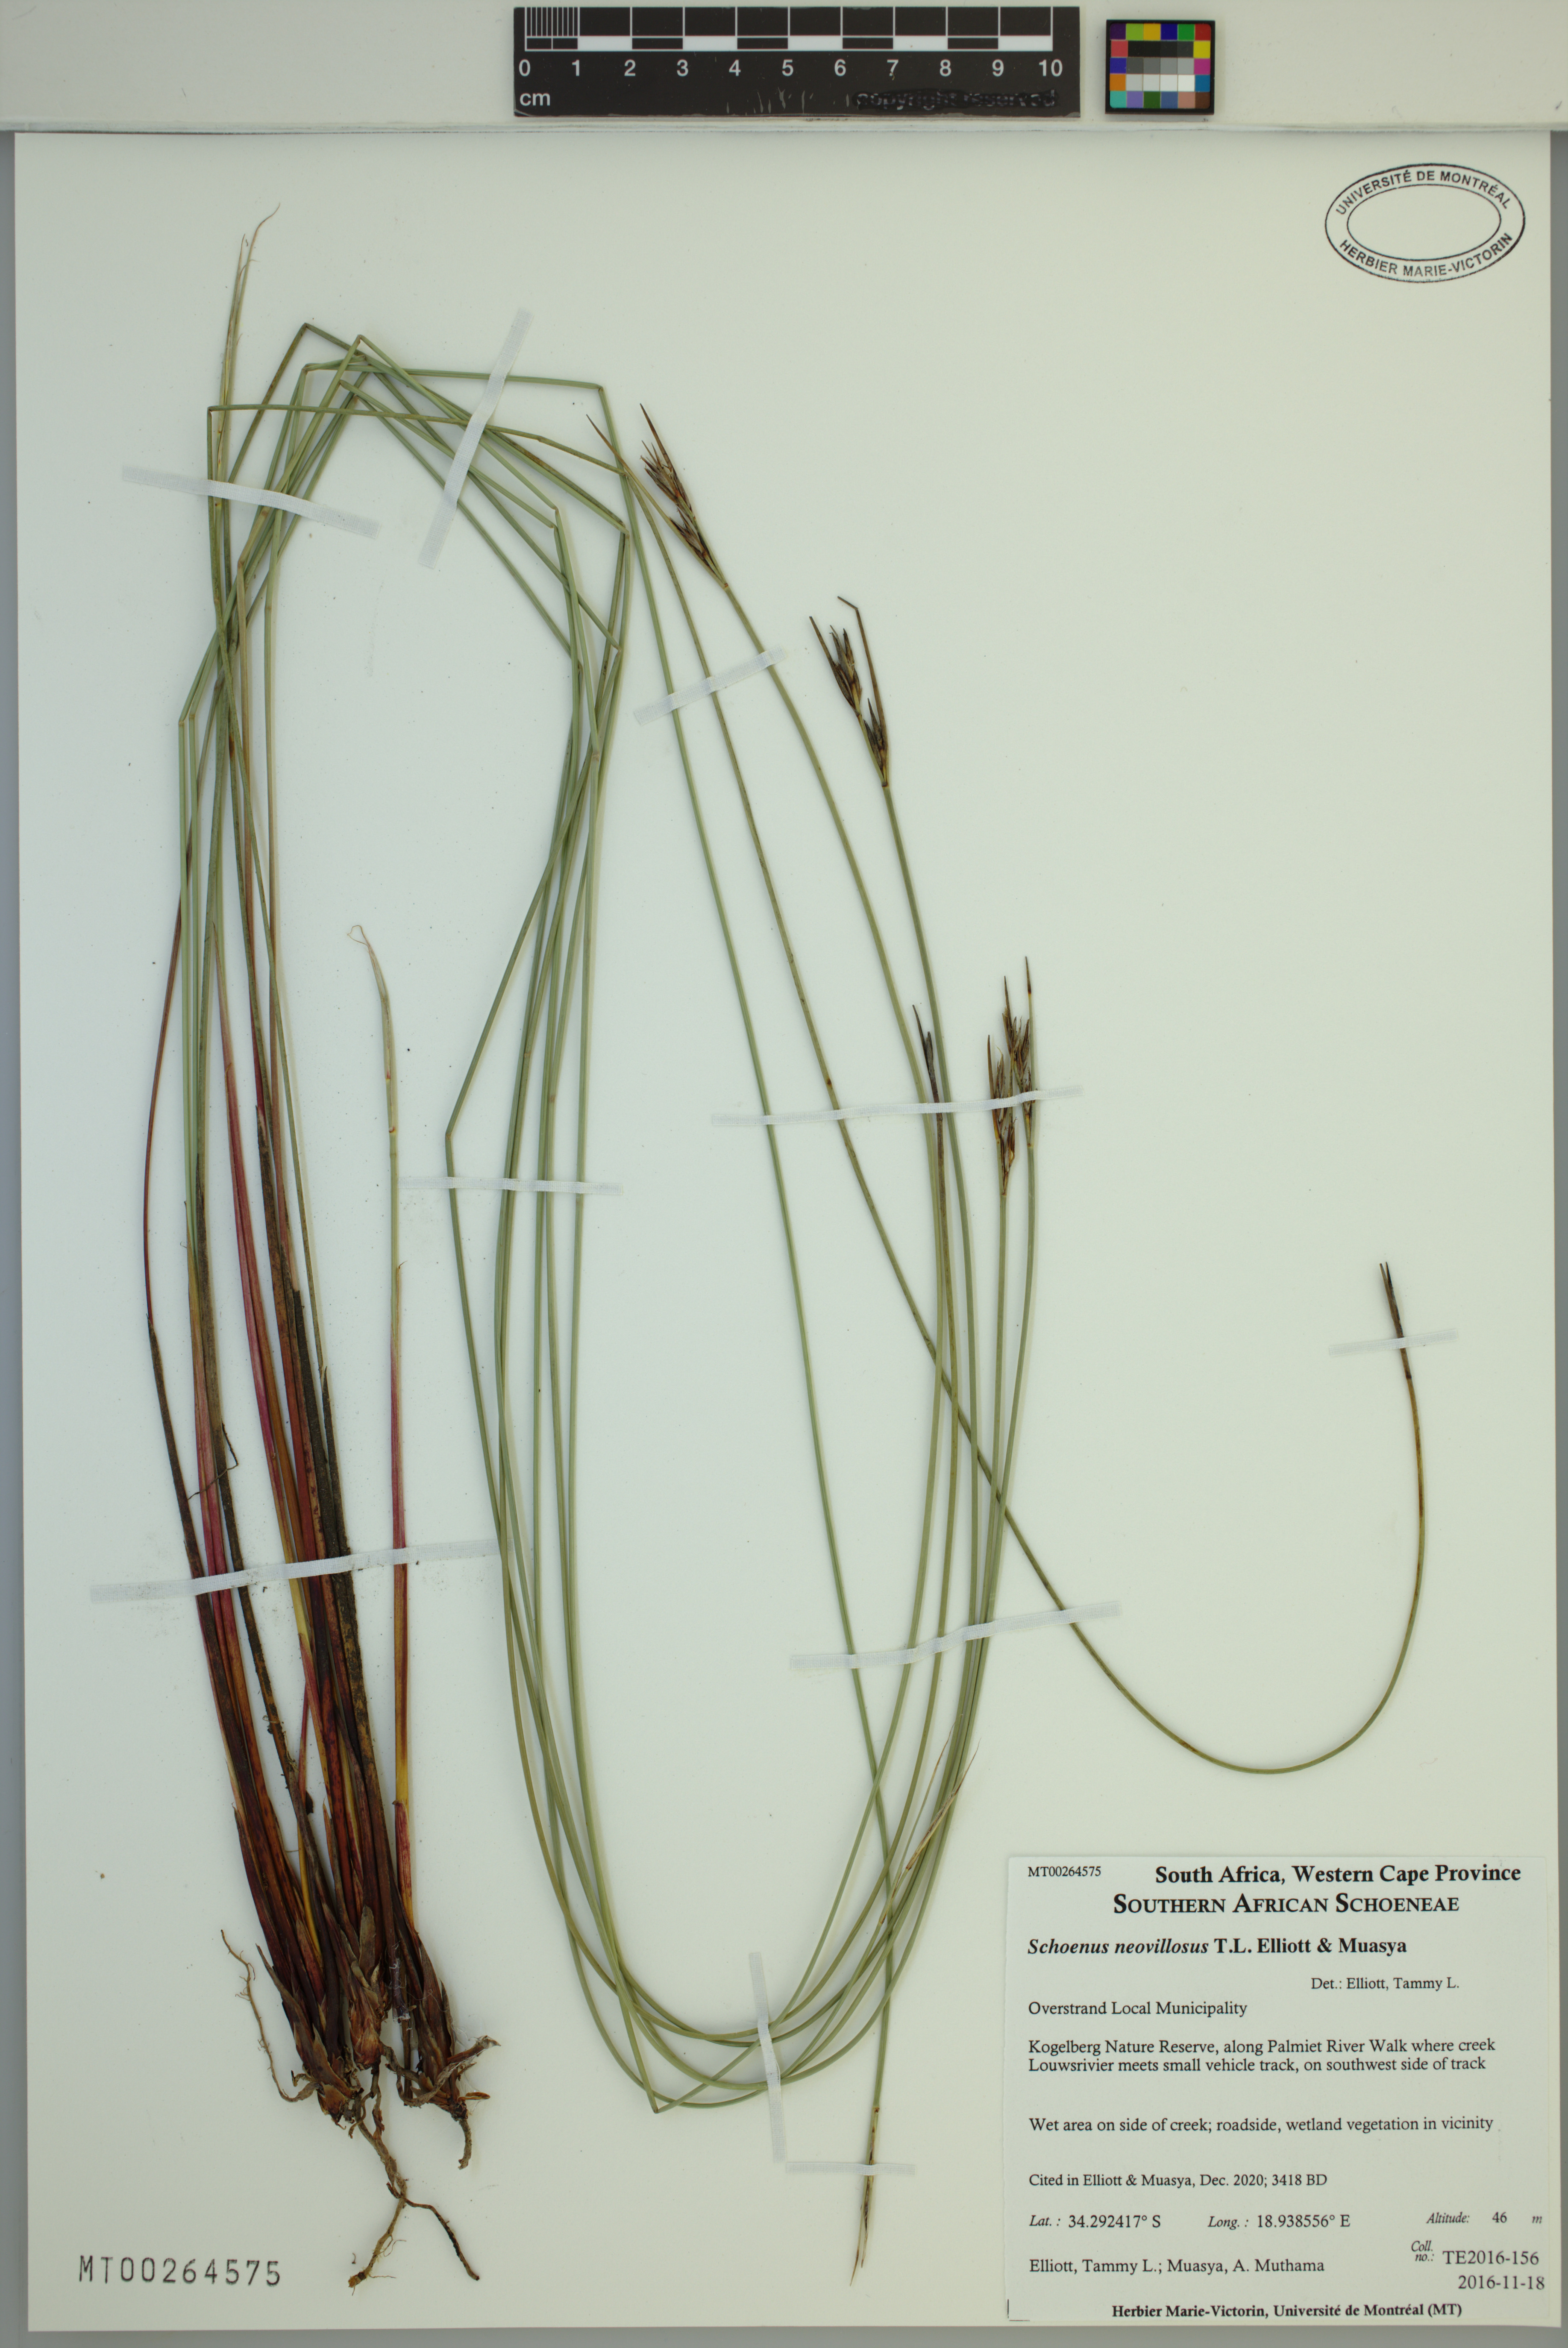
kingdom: Plantae
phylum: Tracheophyta
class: Liliopsida
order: Poales
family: Cyperaceae
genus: Schoenus
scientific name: Schoenus neovillosus
